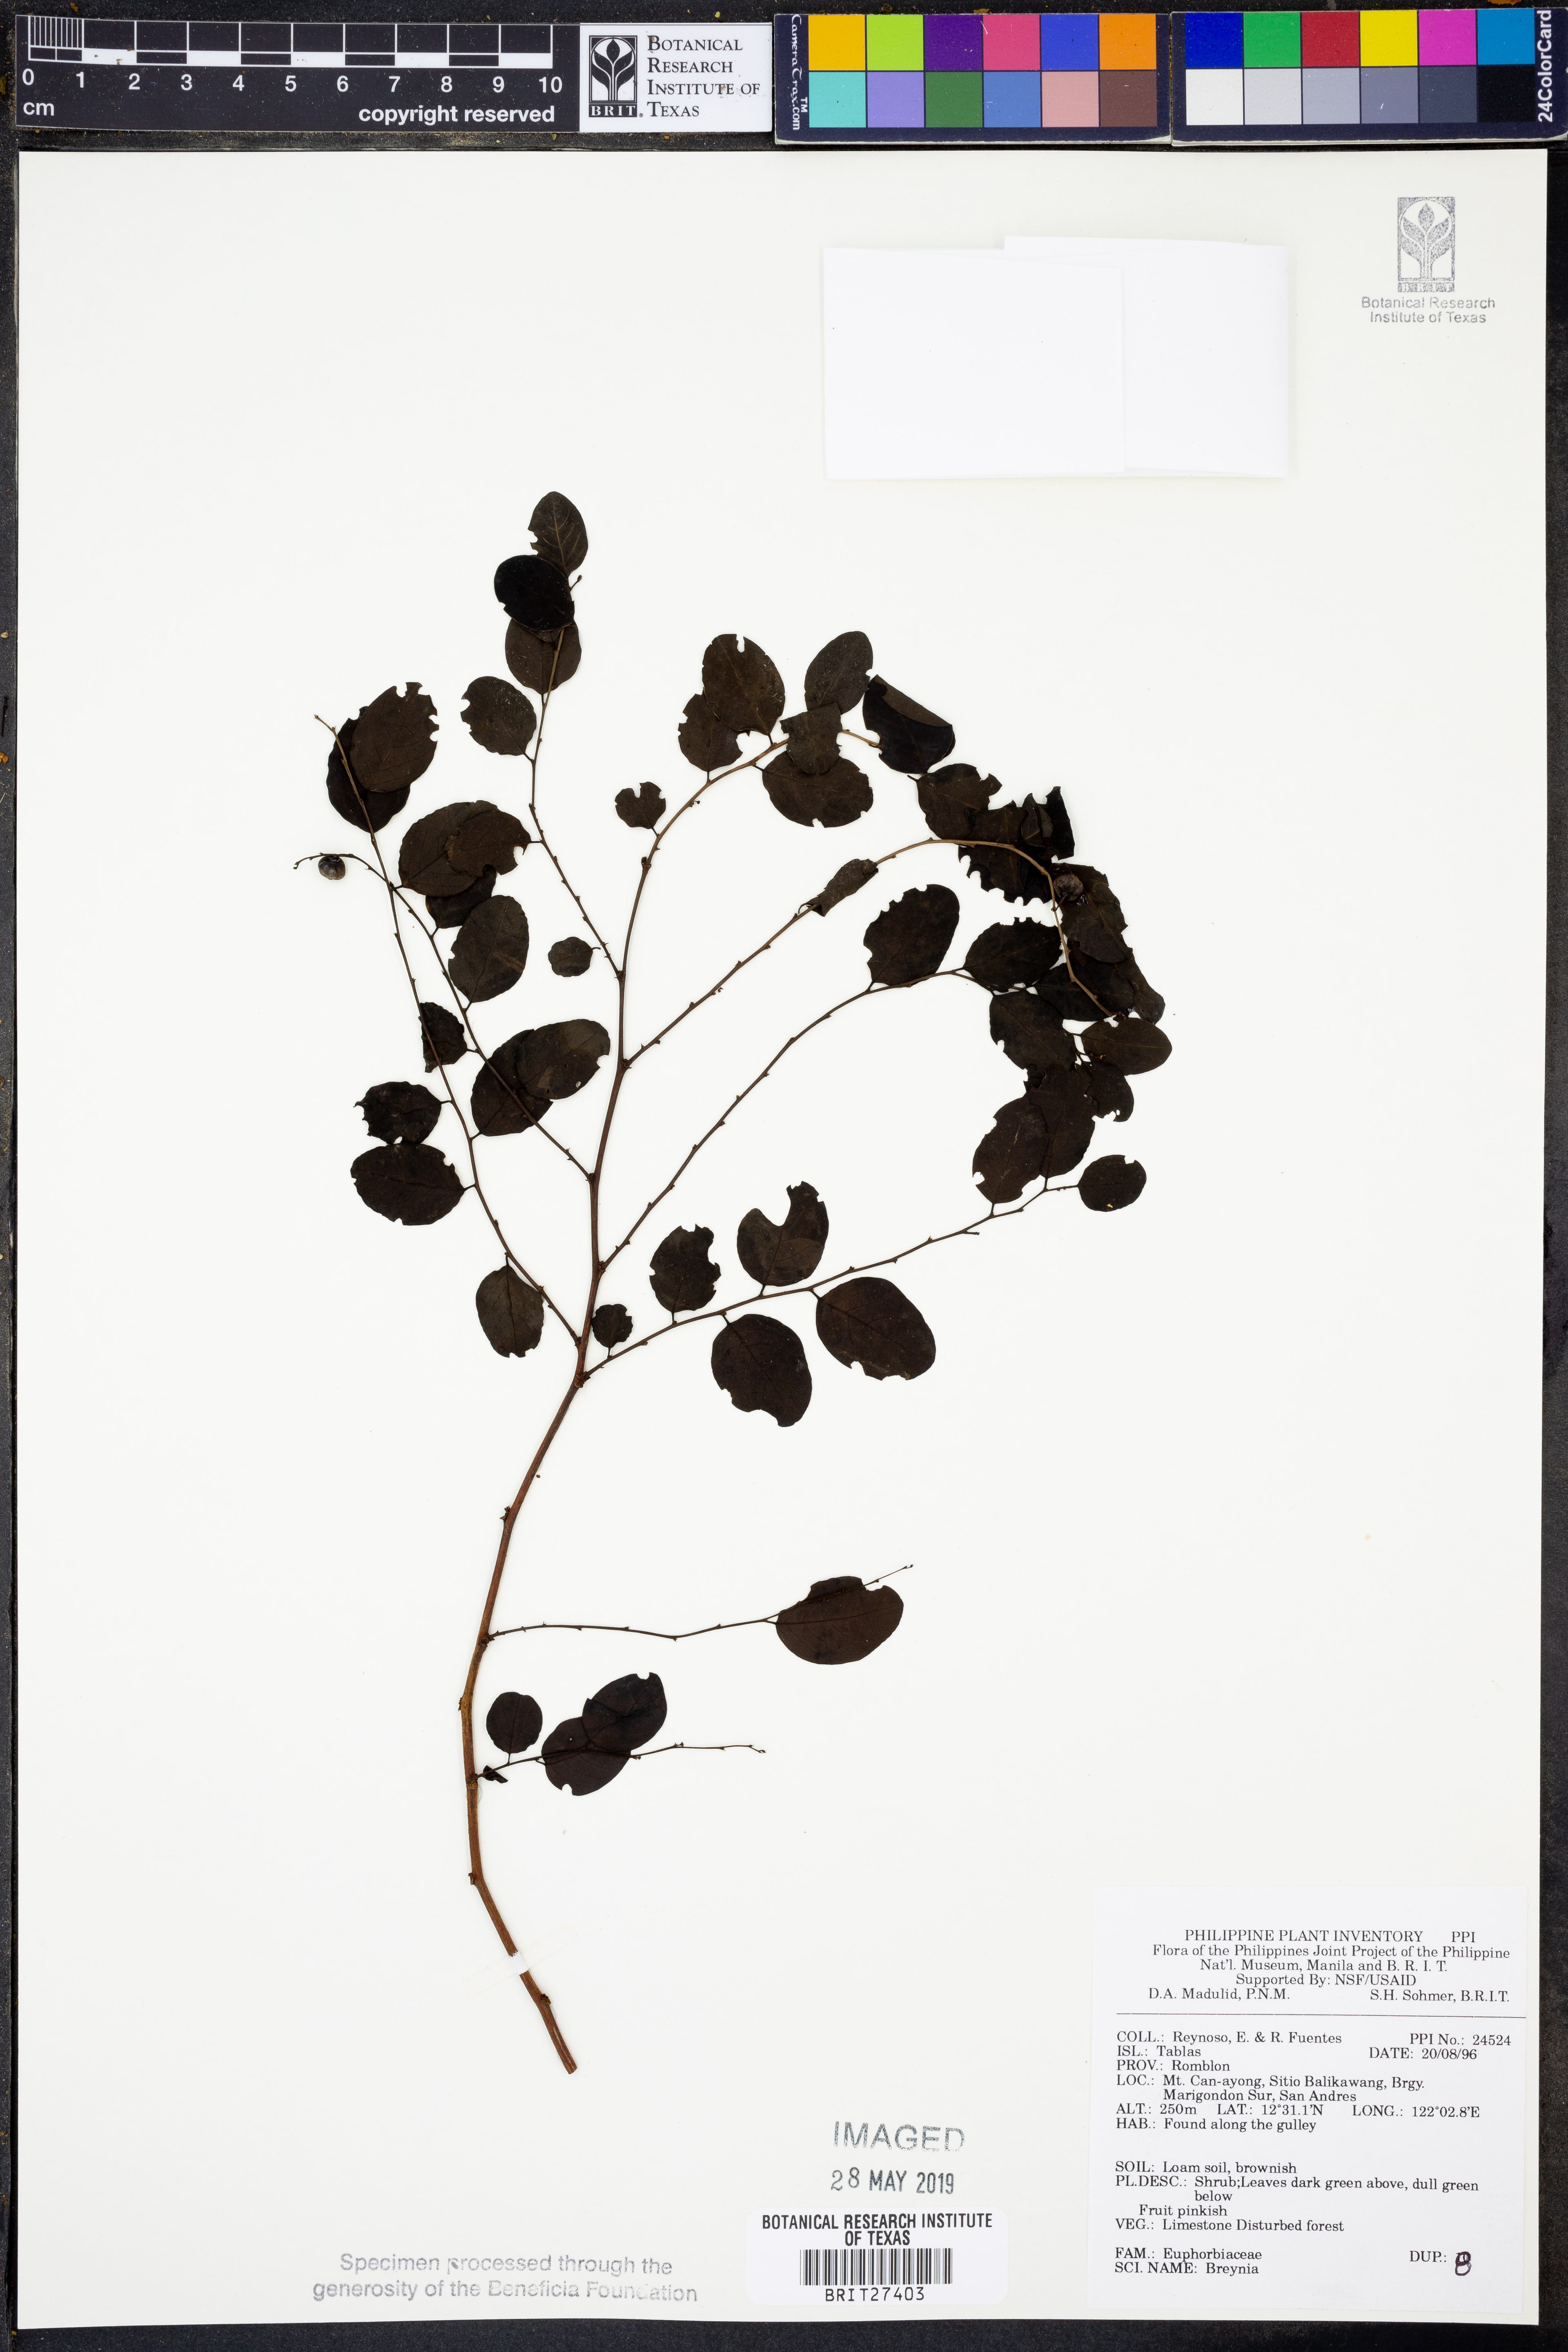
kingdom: Plantae
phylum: Tracheophyta
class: Magnoliopsida
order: Malpighiales
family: Phyllanthaceae
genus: Breynia
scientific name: Breynia
